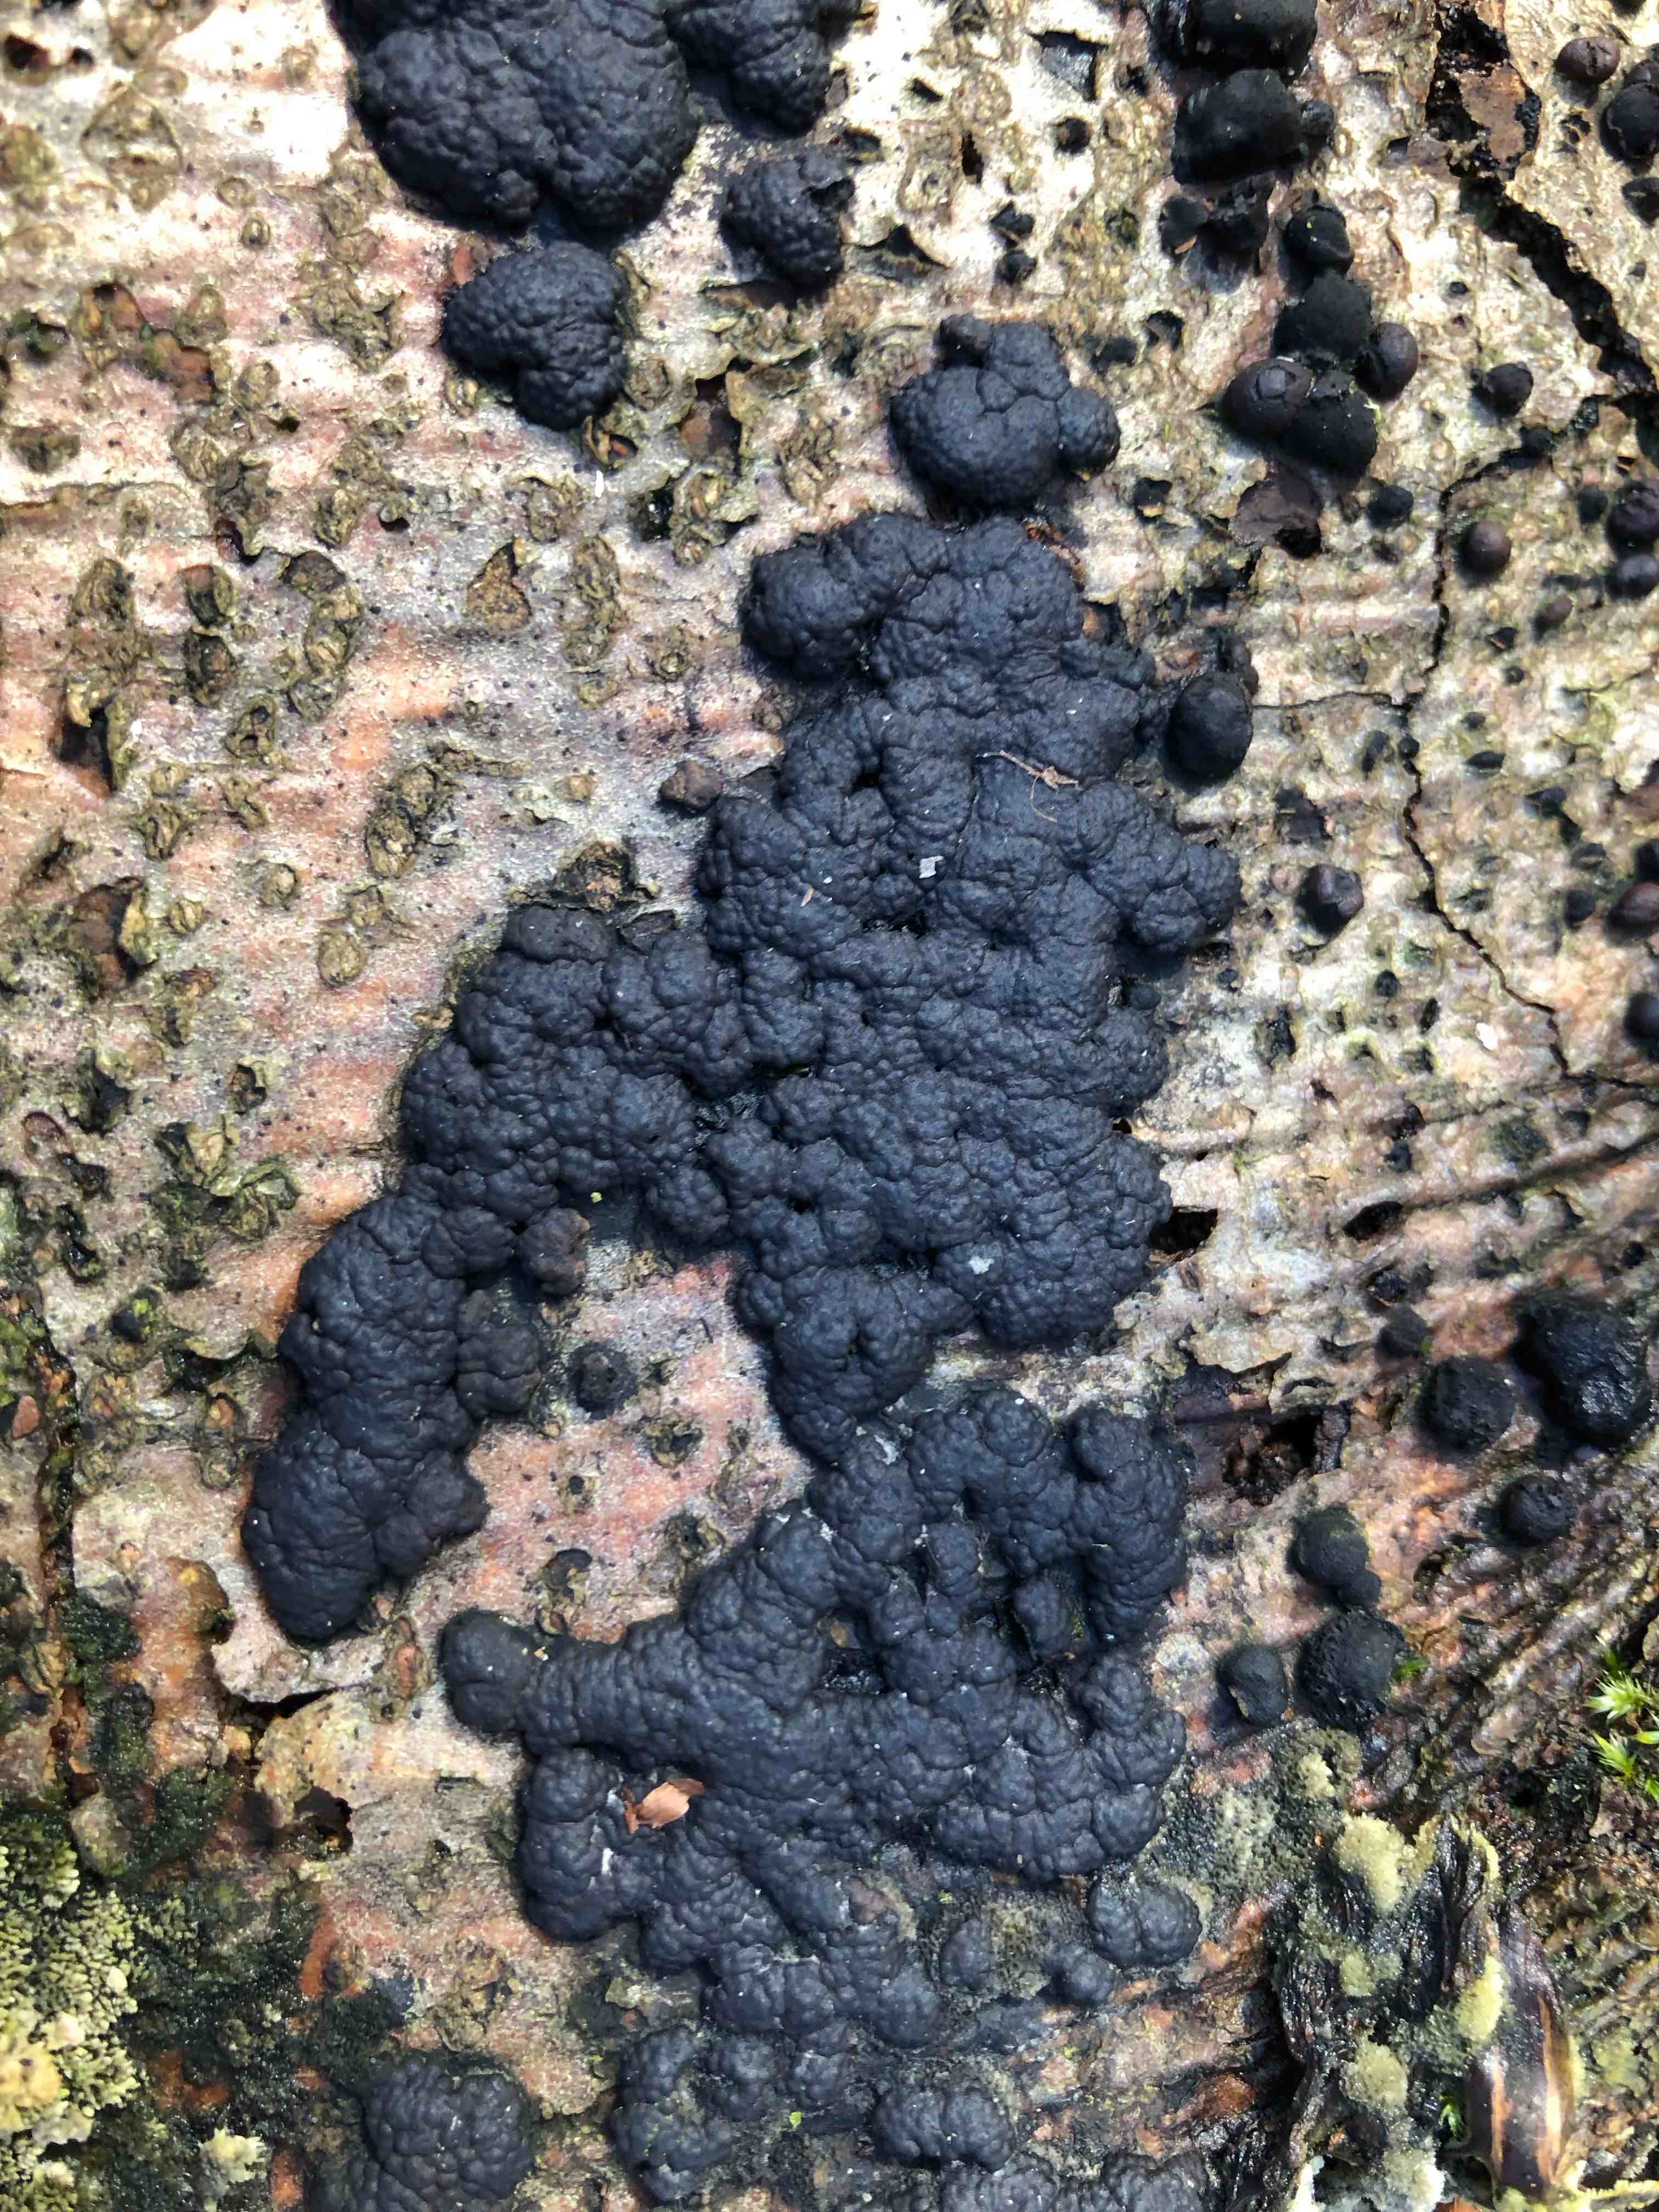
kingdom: Fungi
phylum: Ascomycota
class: Sordariomycetes
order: Xylariales
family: Hypoxylaceae
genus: Jackrogersella
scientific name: Jackrogersella cohaerens
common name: sammenflydende kulbær
